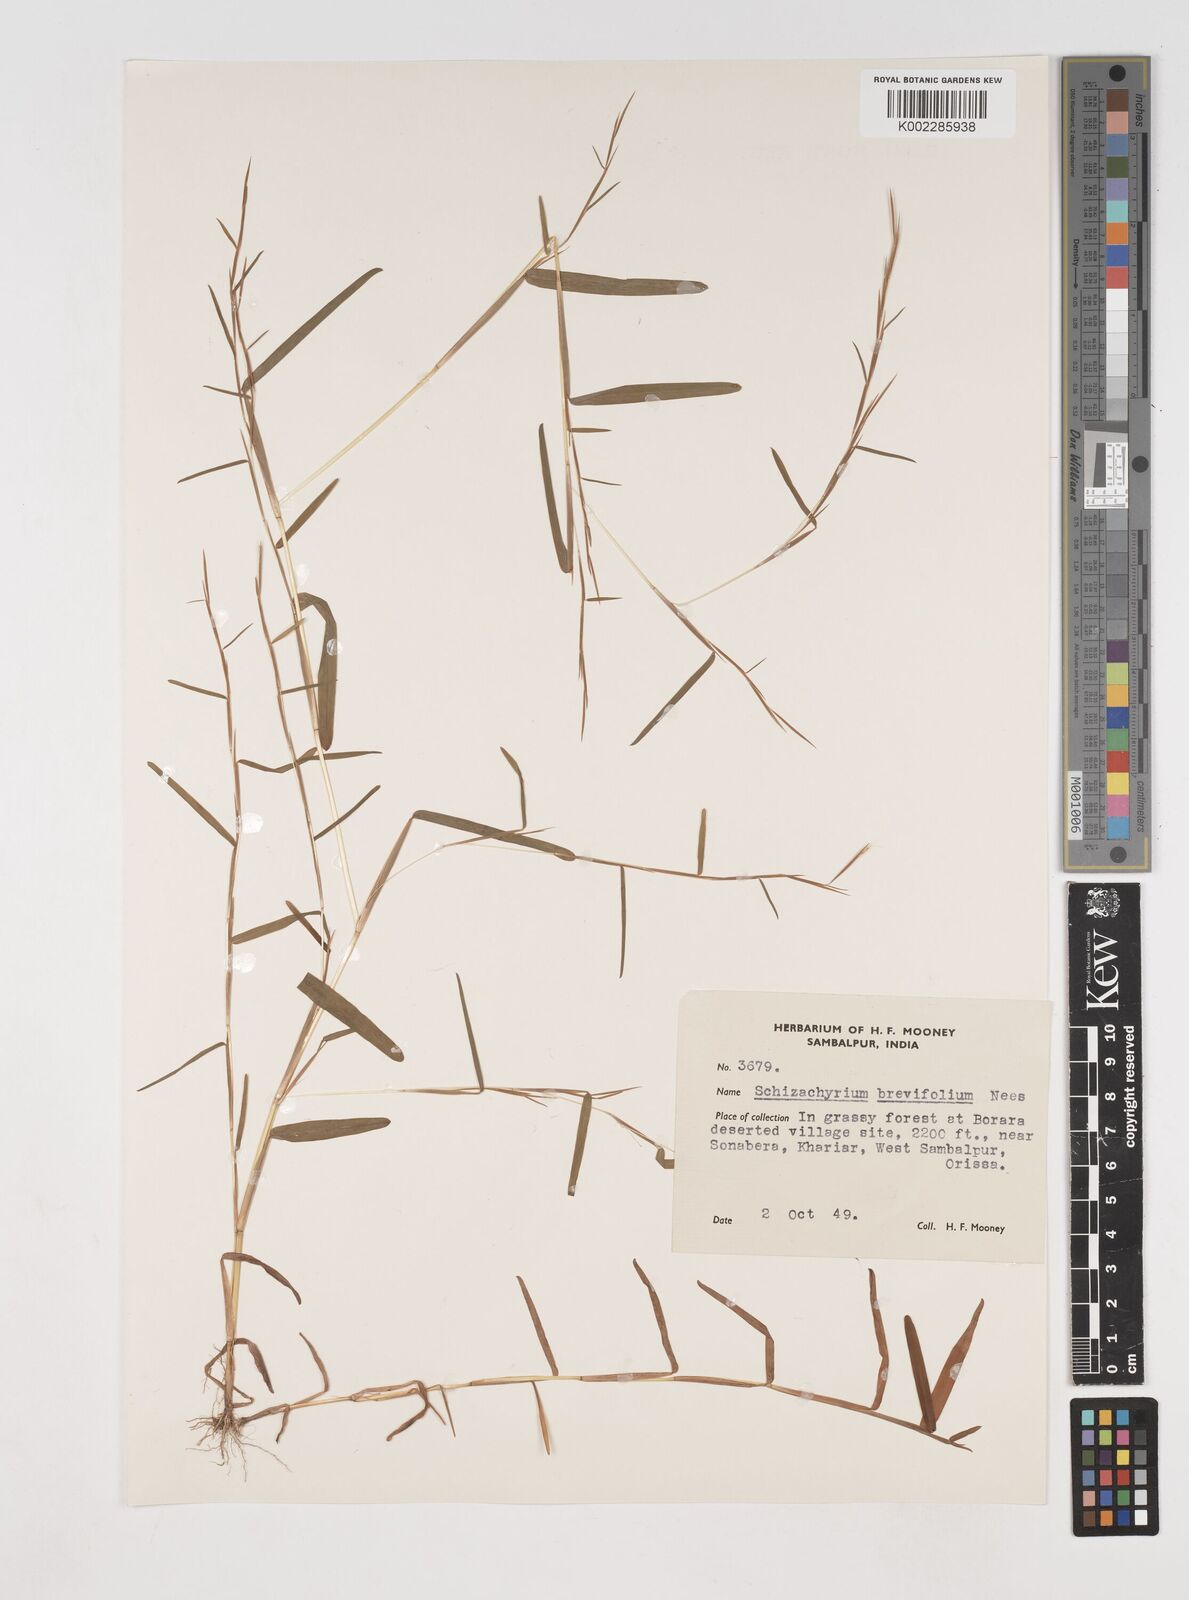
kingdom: Plantae
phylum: Tracheophyta
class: Liliopsida
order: Poales
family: Poaceae
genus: Schizachyrium
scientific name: Schizachyrium brevifolium
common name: Serillo dulce
